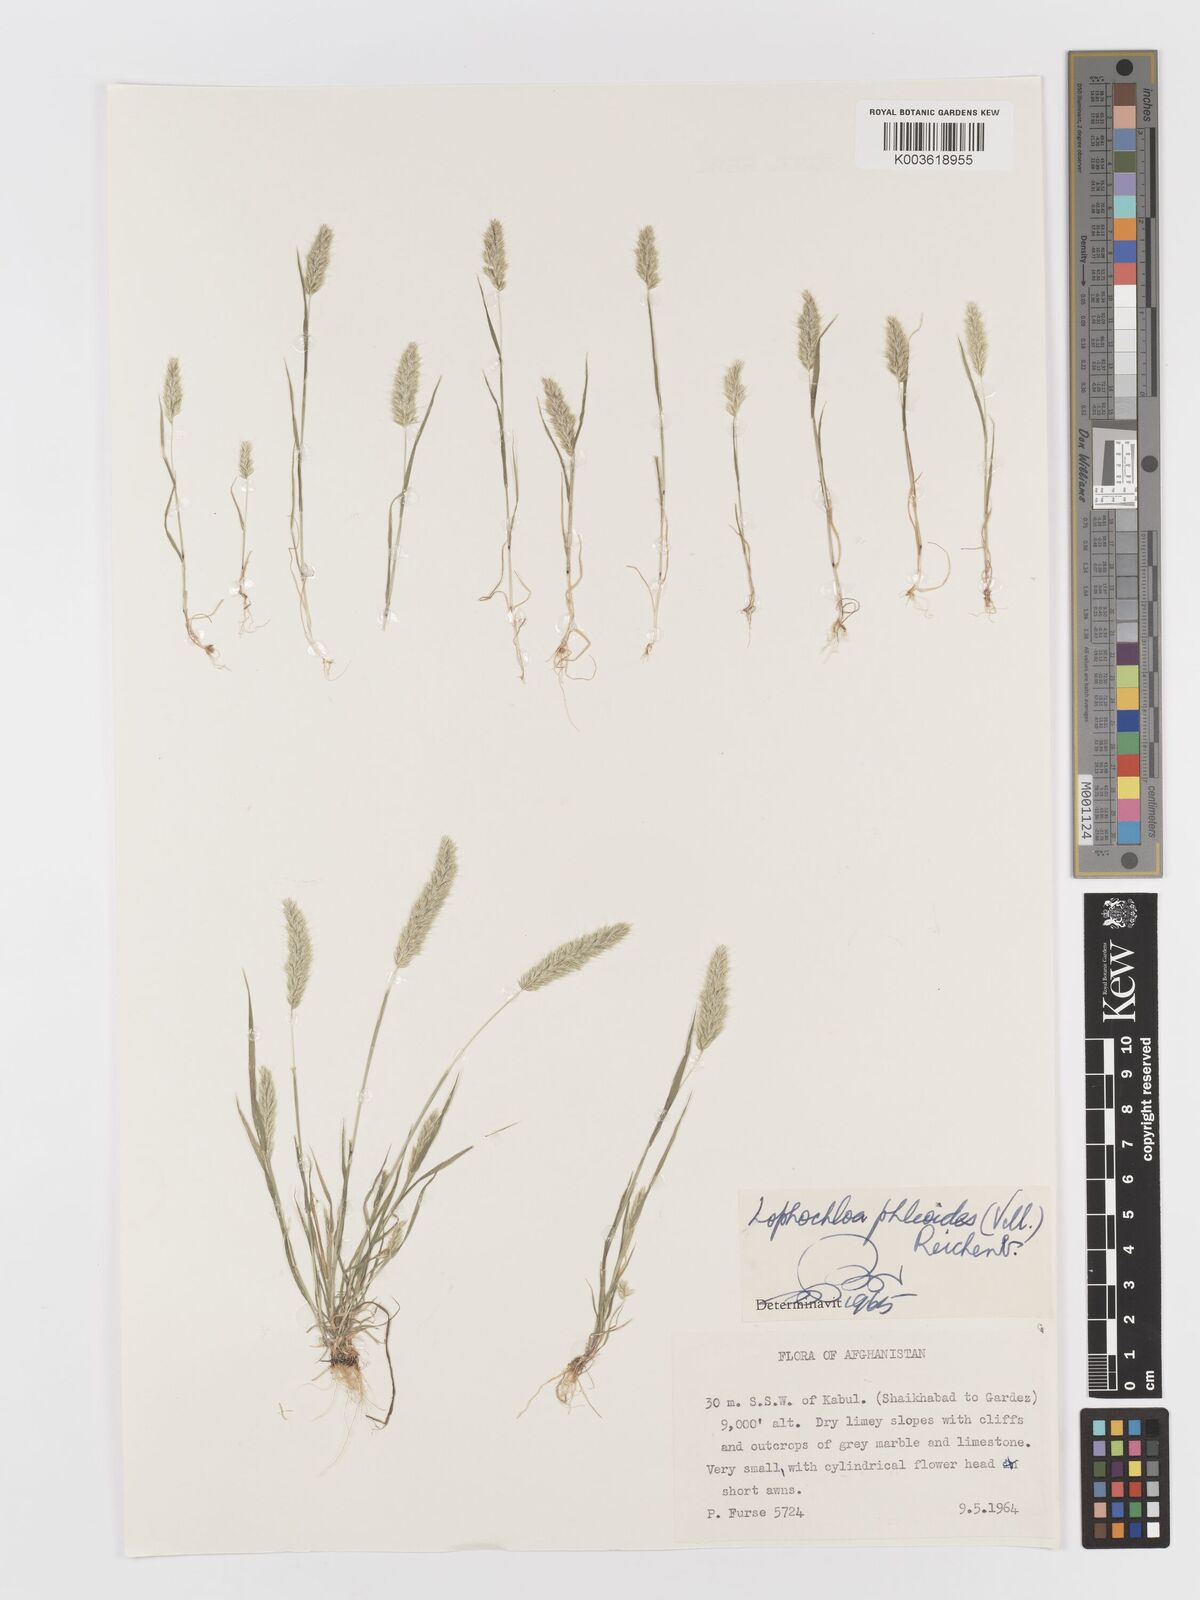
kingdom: Plantae
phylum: Tracheophyta
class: Liliopsida
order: Poales
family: Poaceae
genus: Rostraria
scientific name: Rostraria cristata
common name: Mediterranean hair-grass
